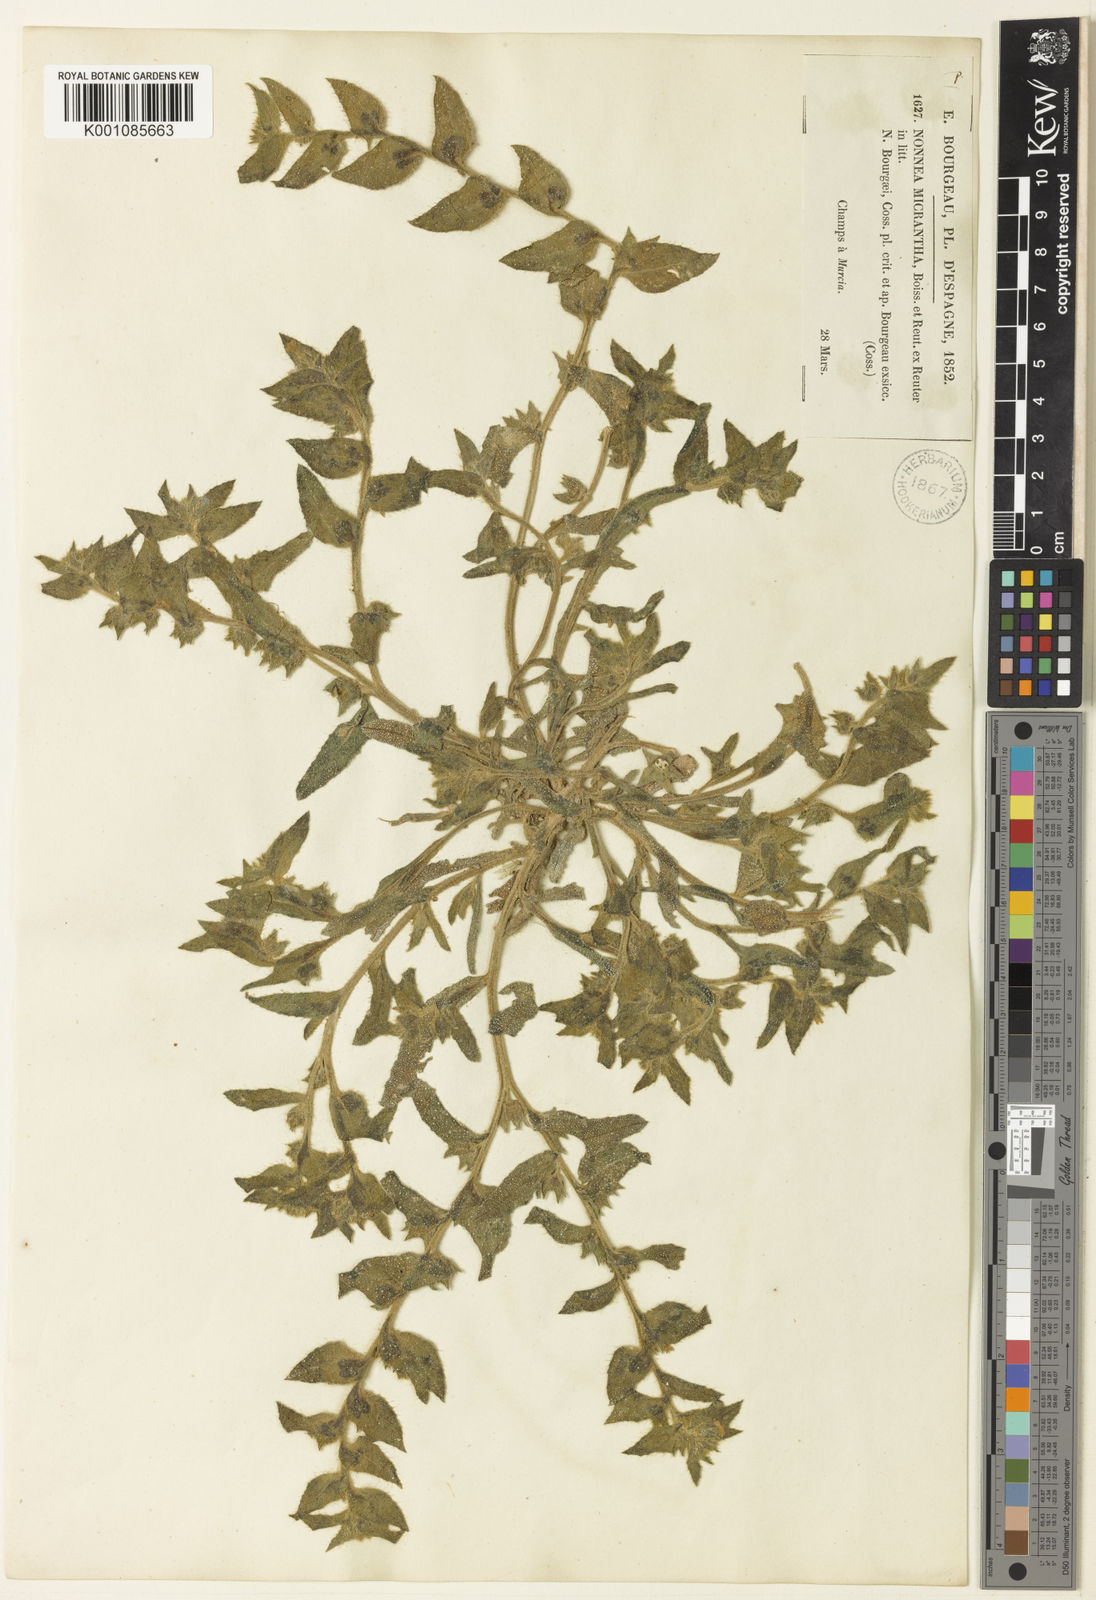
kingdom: Plantae
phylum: Tracheophyta
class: Magnoliopsida
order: Boraginales
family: Boraginaceae
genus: Nonea
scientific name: Nonea micrantha
